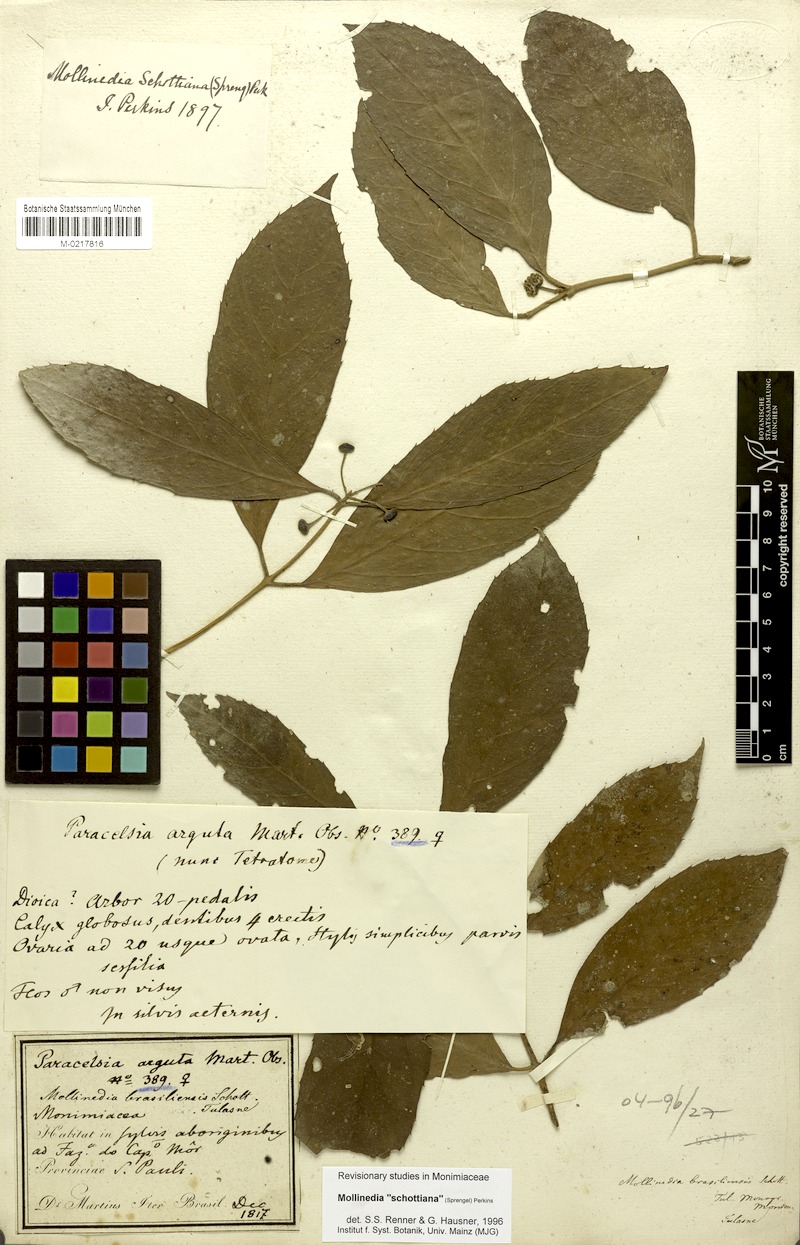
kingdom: Plantae
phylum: Tracheophyta
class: Magnoliopsida
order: Laurales
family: Monimiaceae
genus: Mollinedia
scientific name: Mollinedia umbellata
